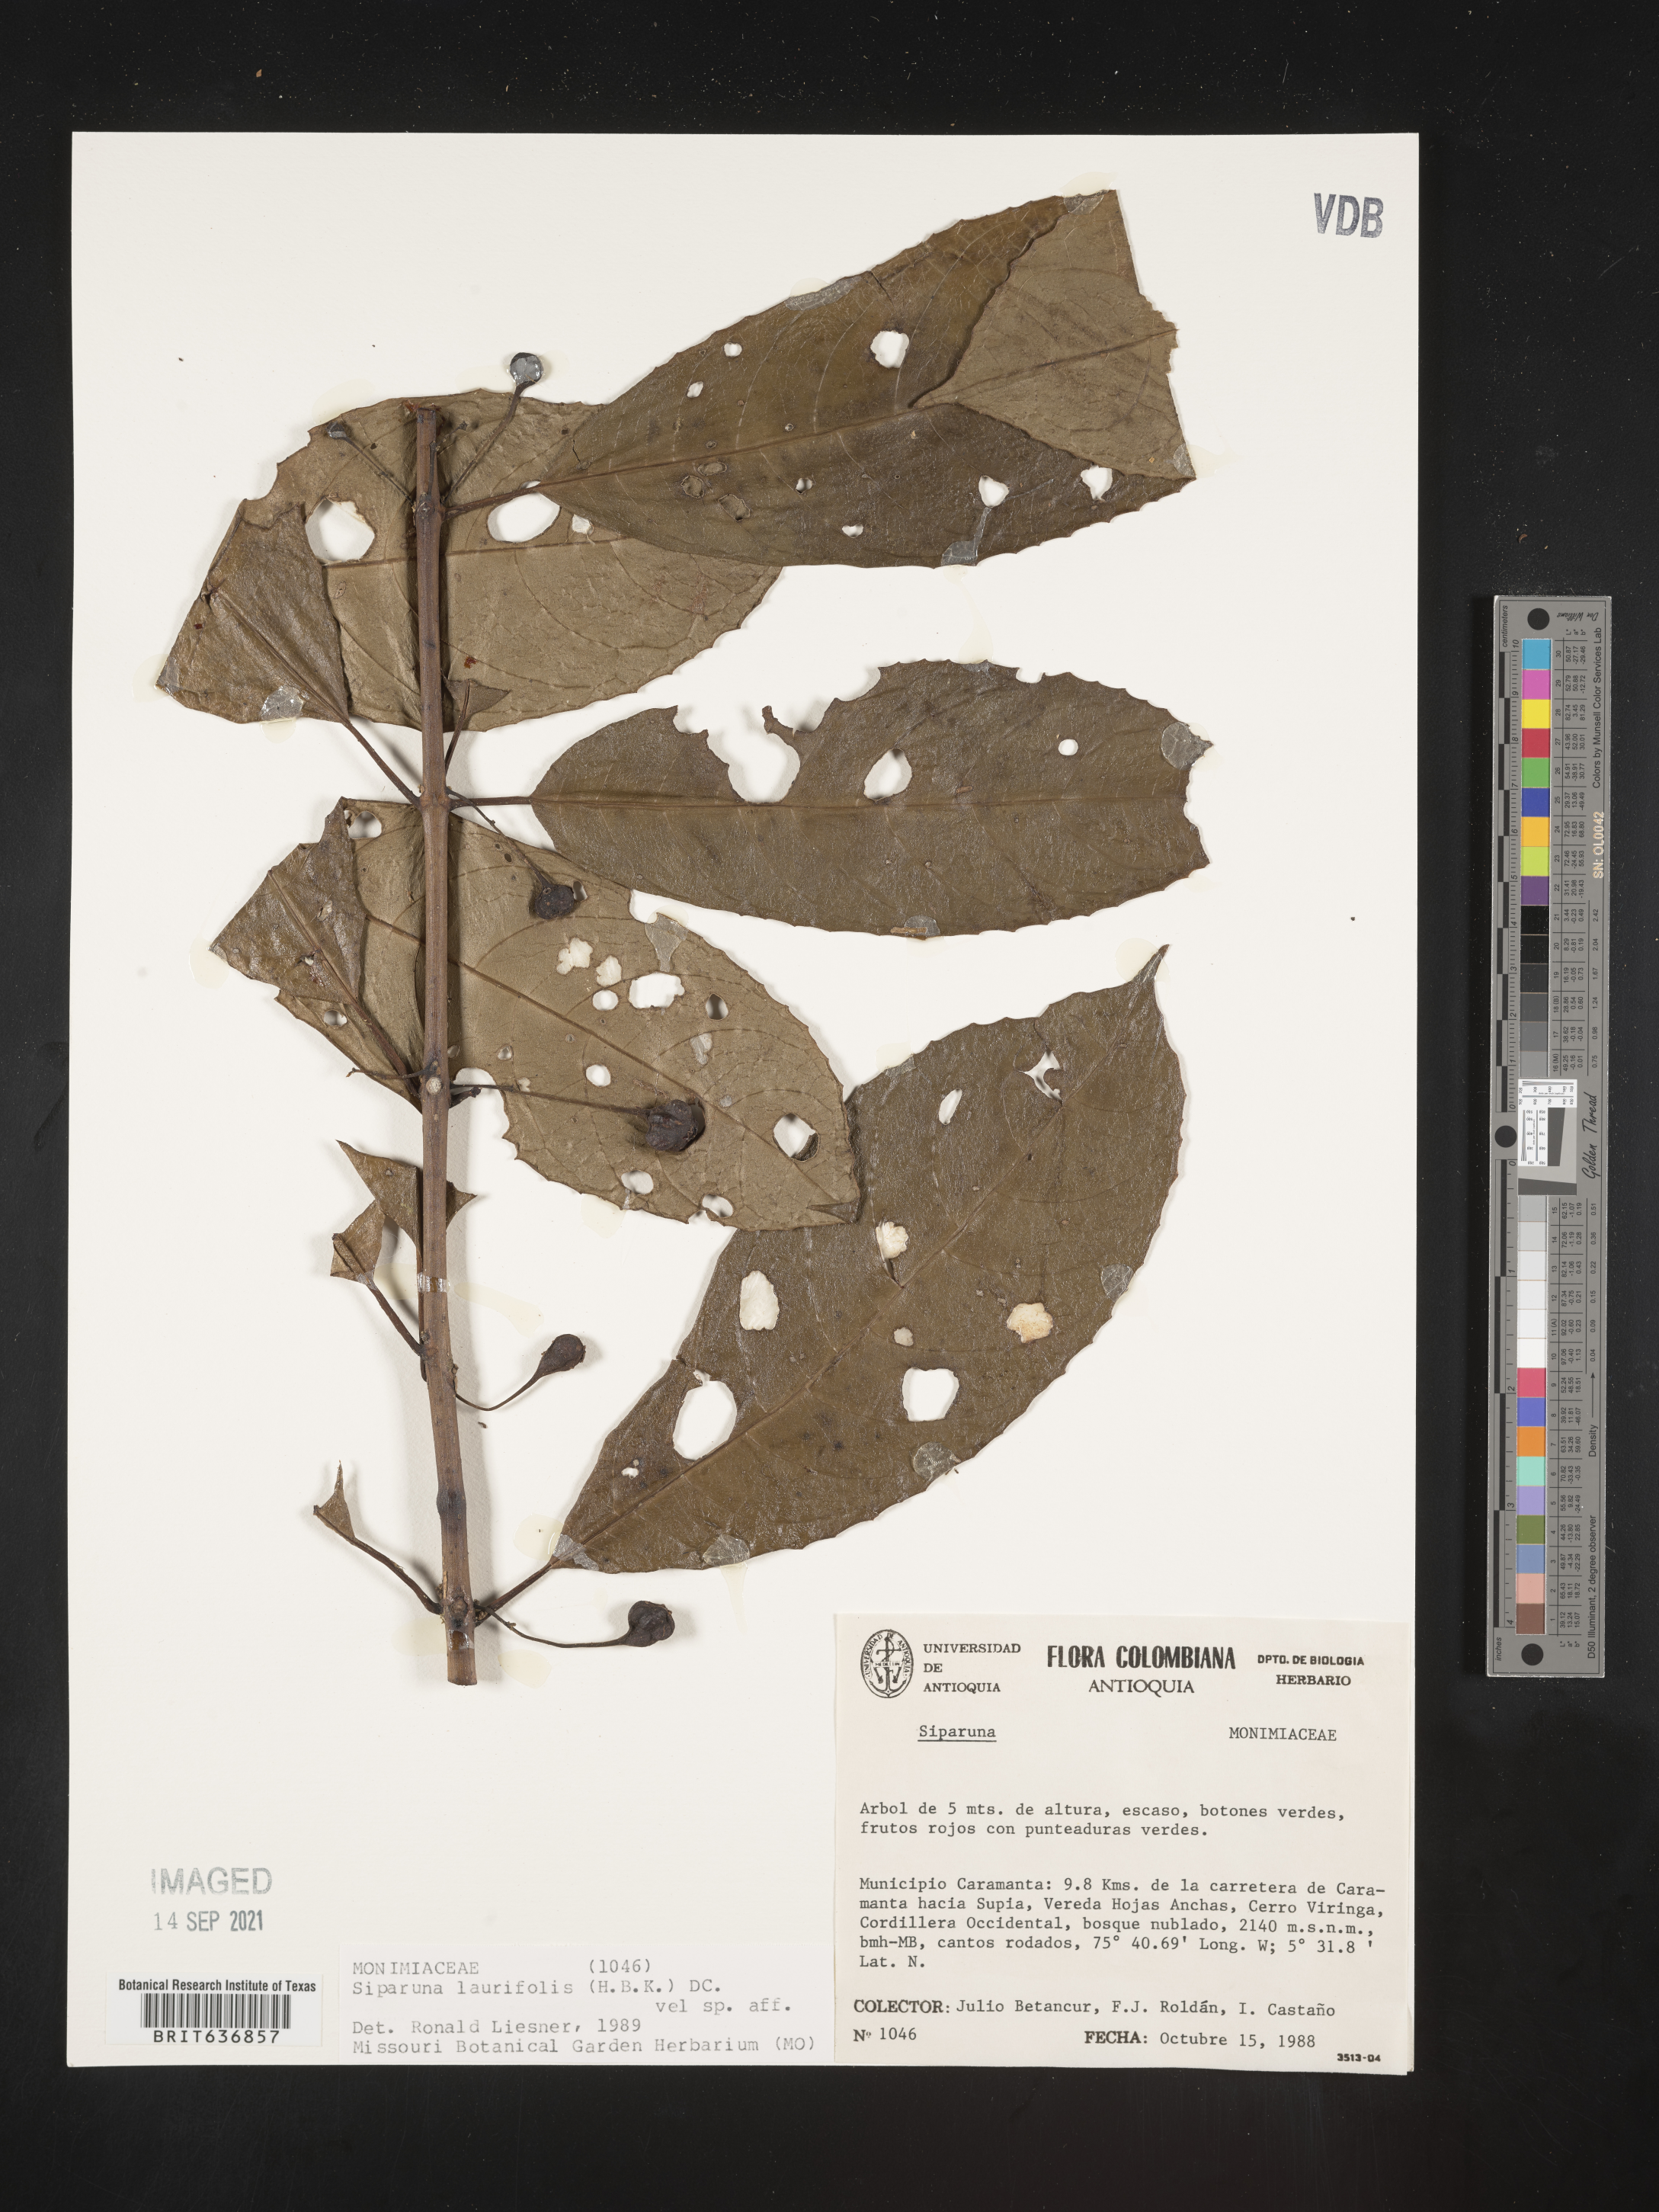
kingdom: Plantae
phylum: Tracheophyta
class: Magnoliopsida
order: Laurales
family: Siparunaceae
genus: Siparuna
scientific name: Siparuna
